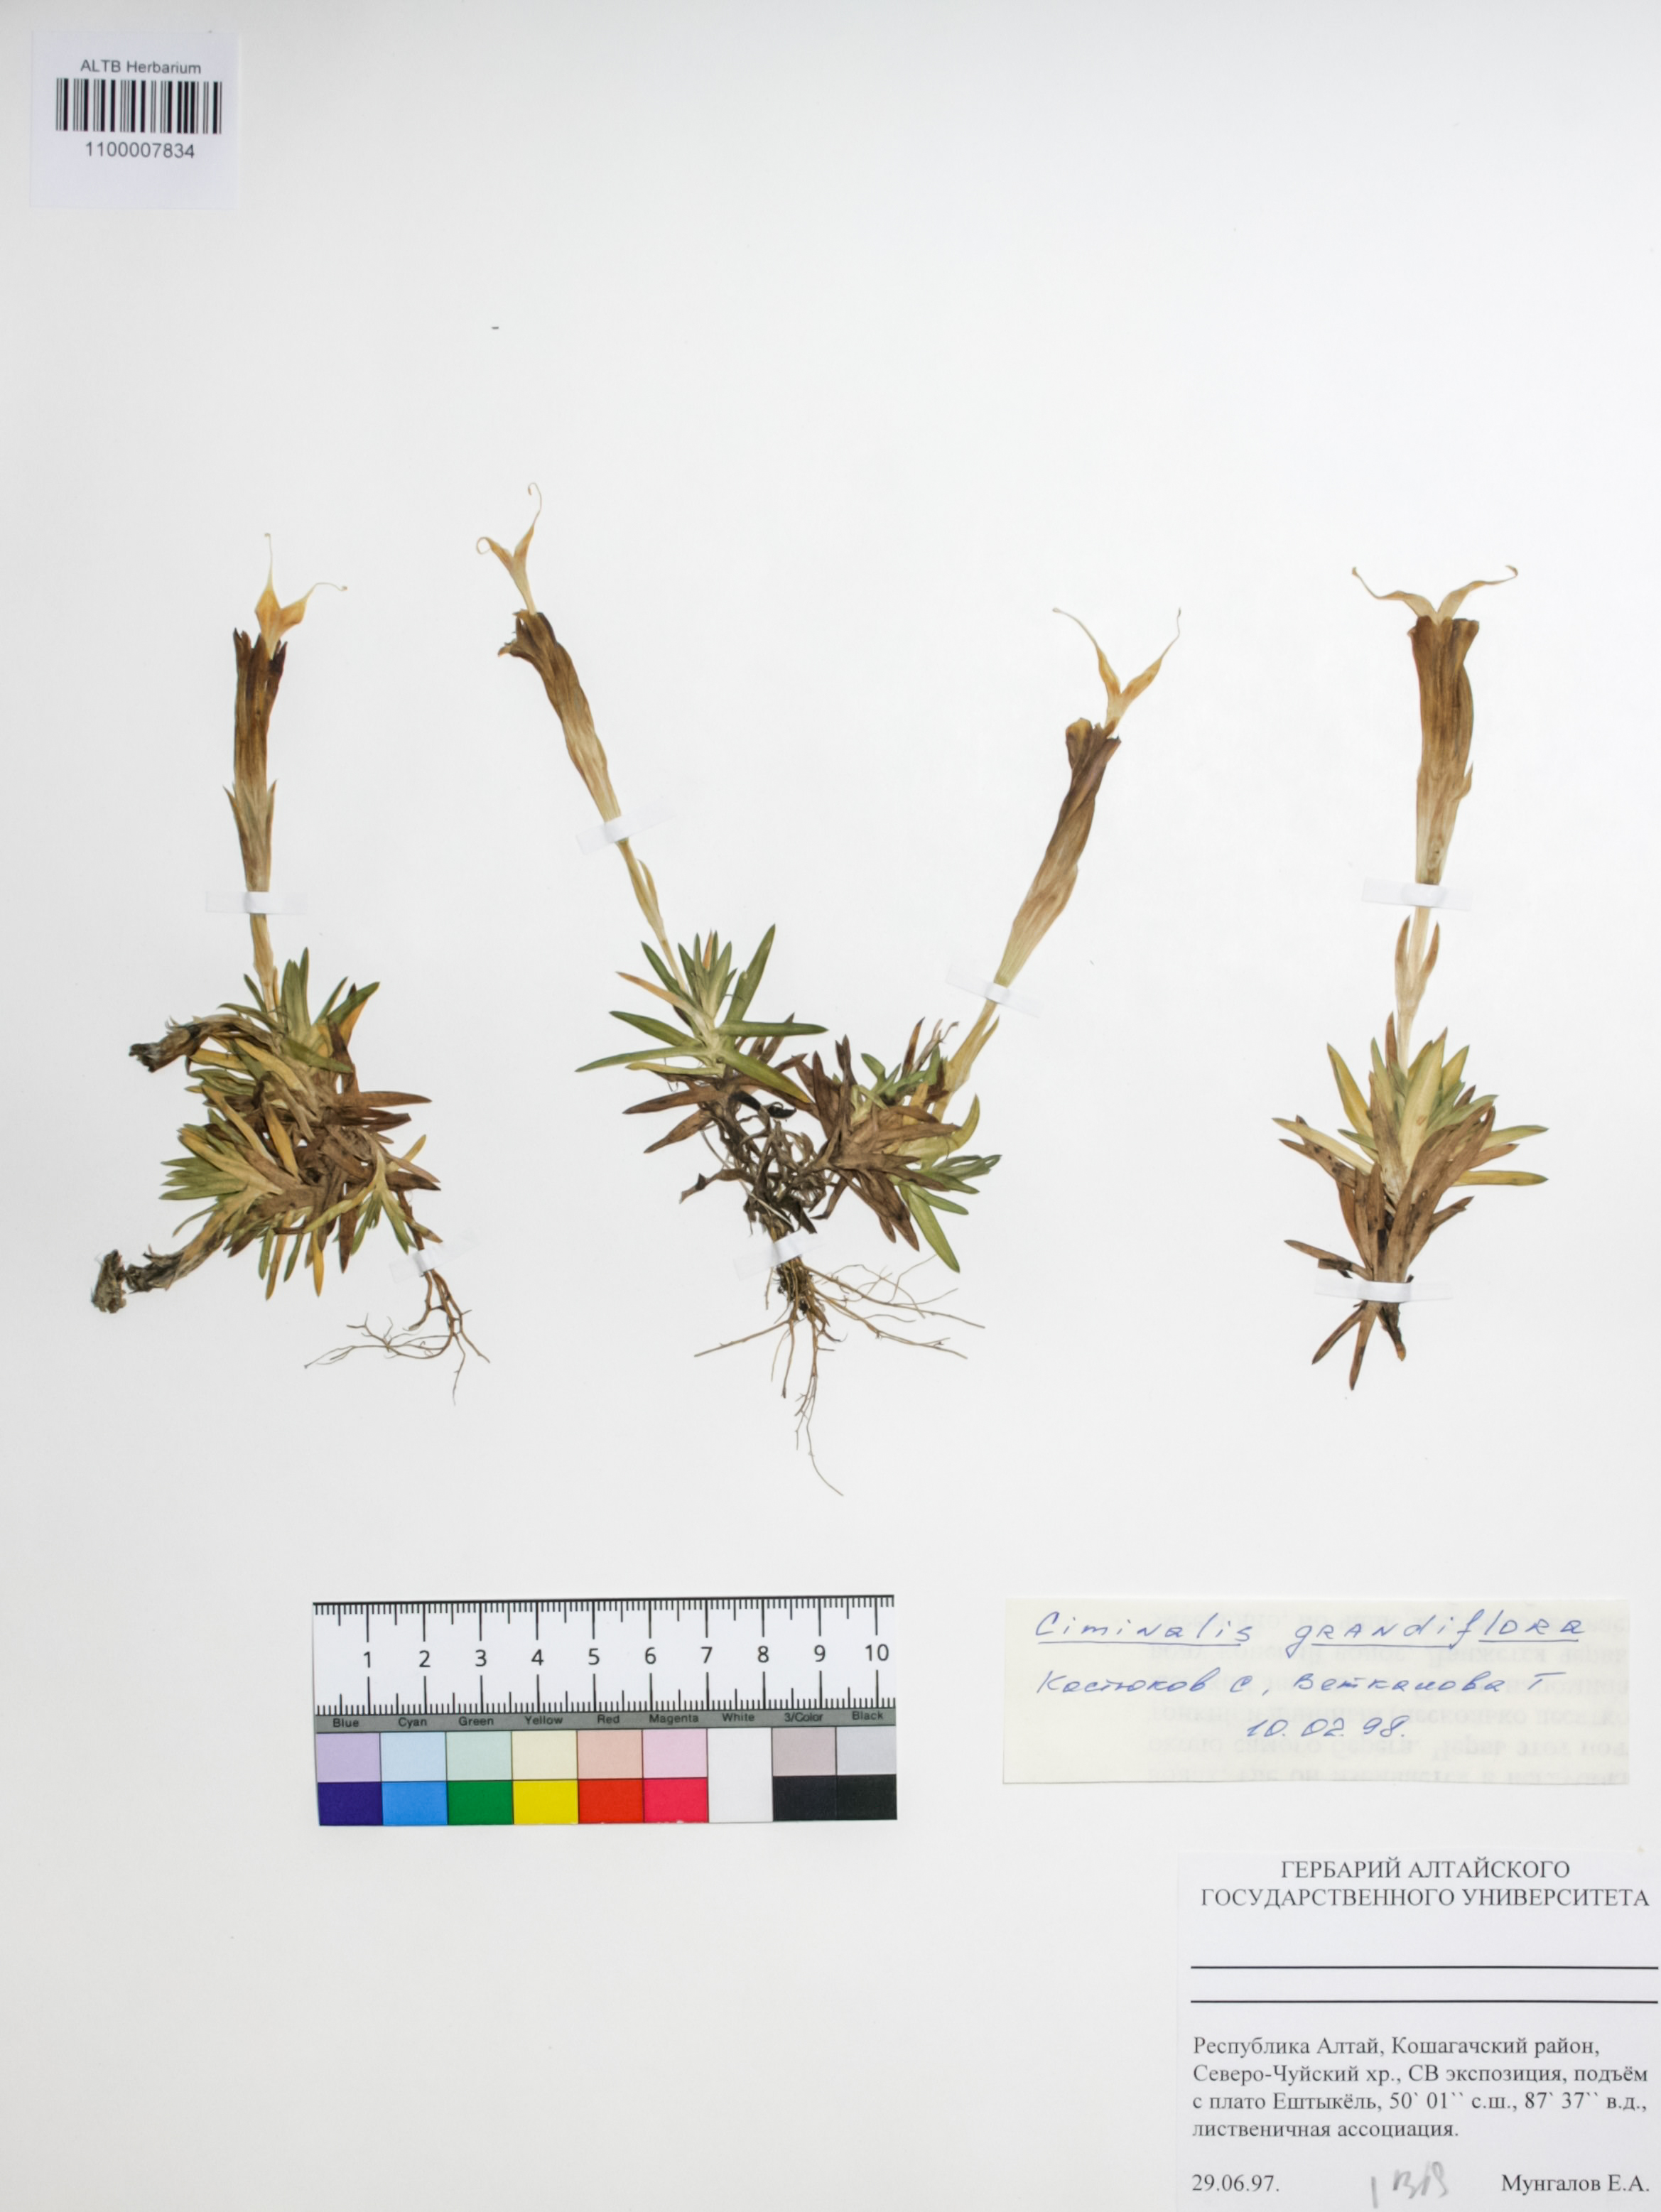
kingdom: Plantae
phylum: Tracheophyta
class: Magnoliopsida
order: Gentianales
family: Gentianaceae
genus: Gentiana
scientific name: Gentiana grandiflora
